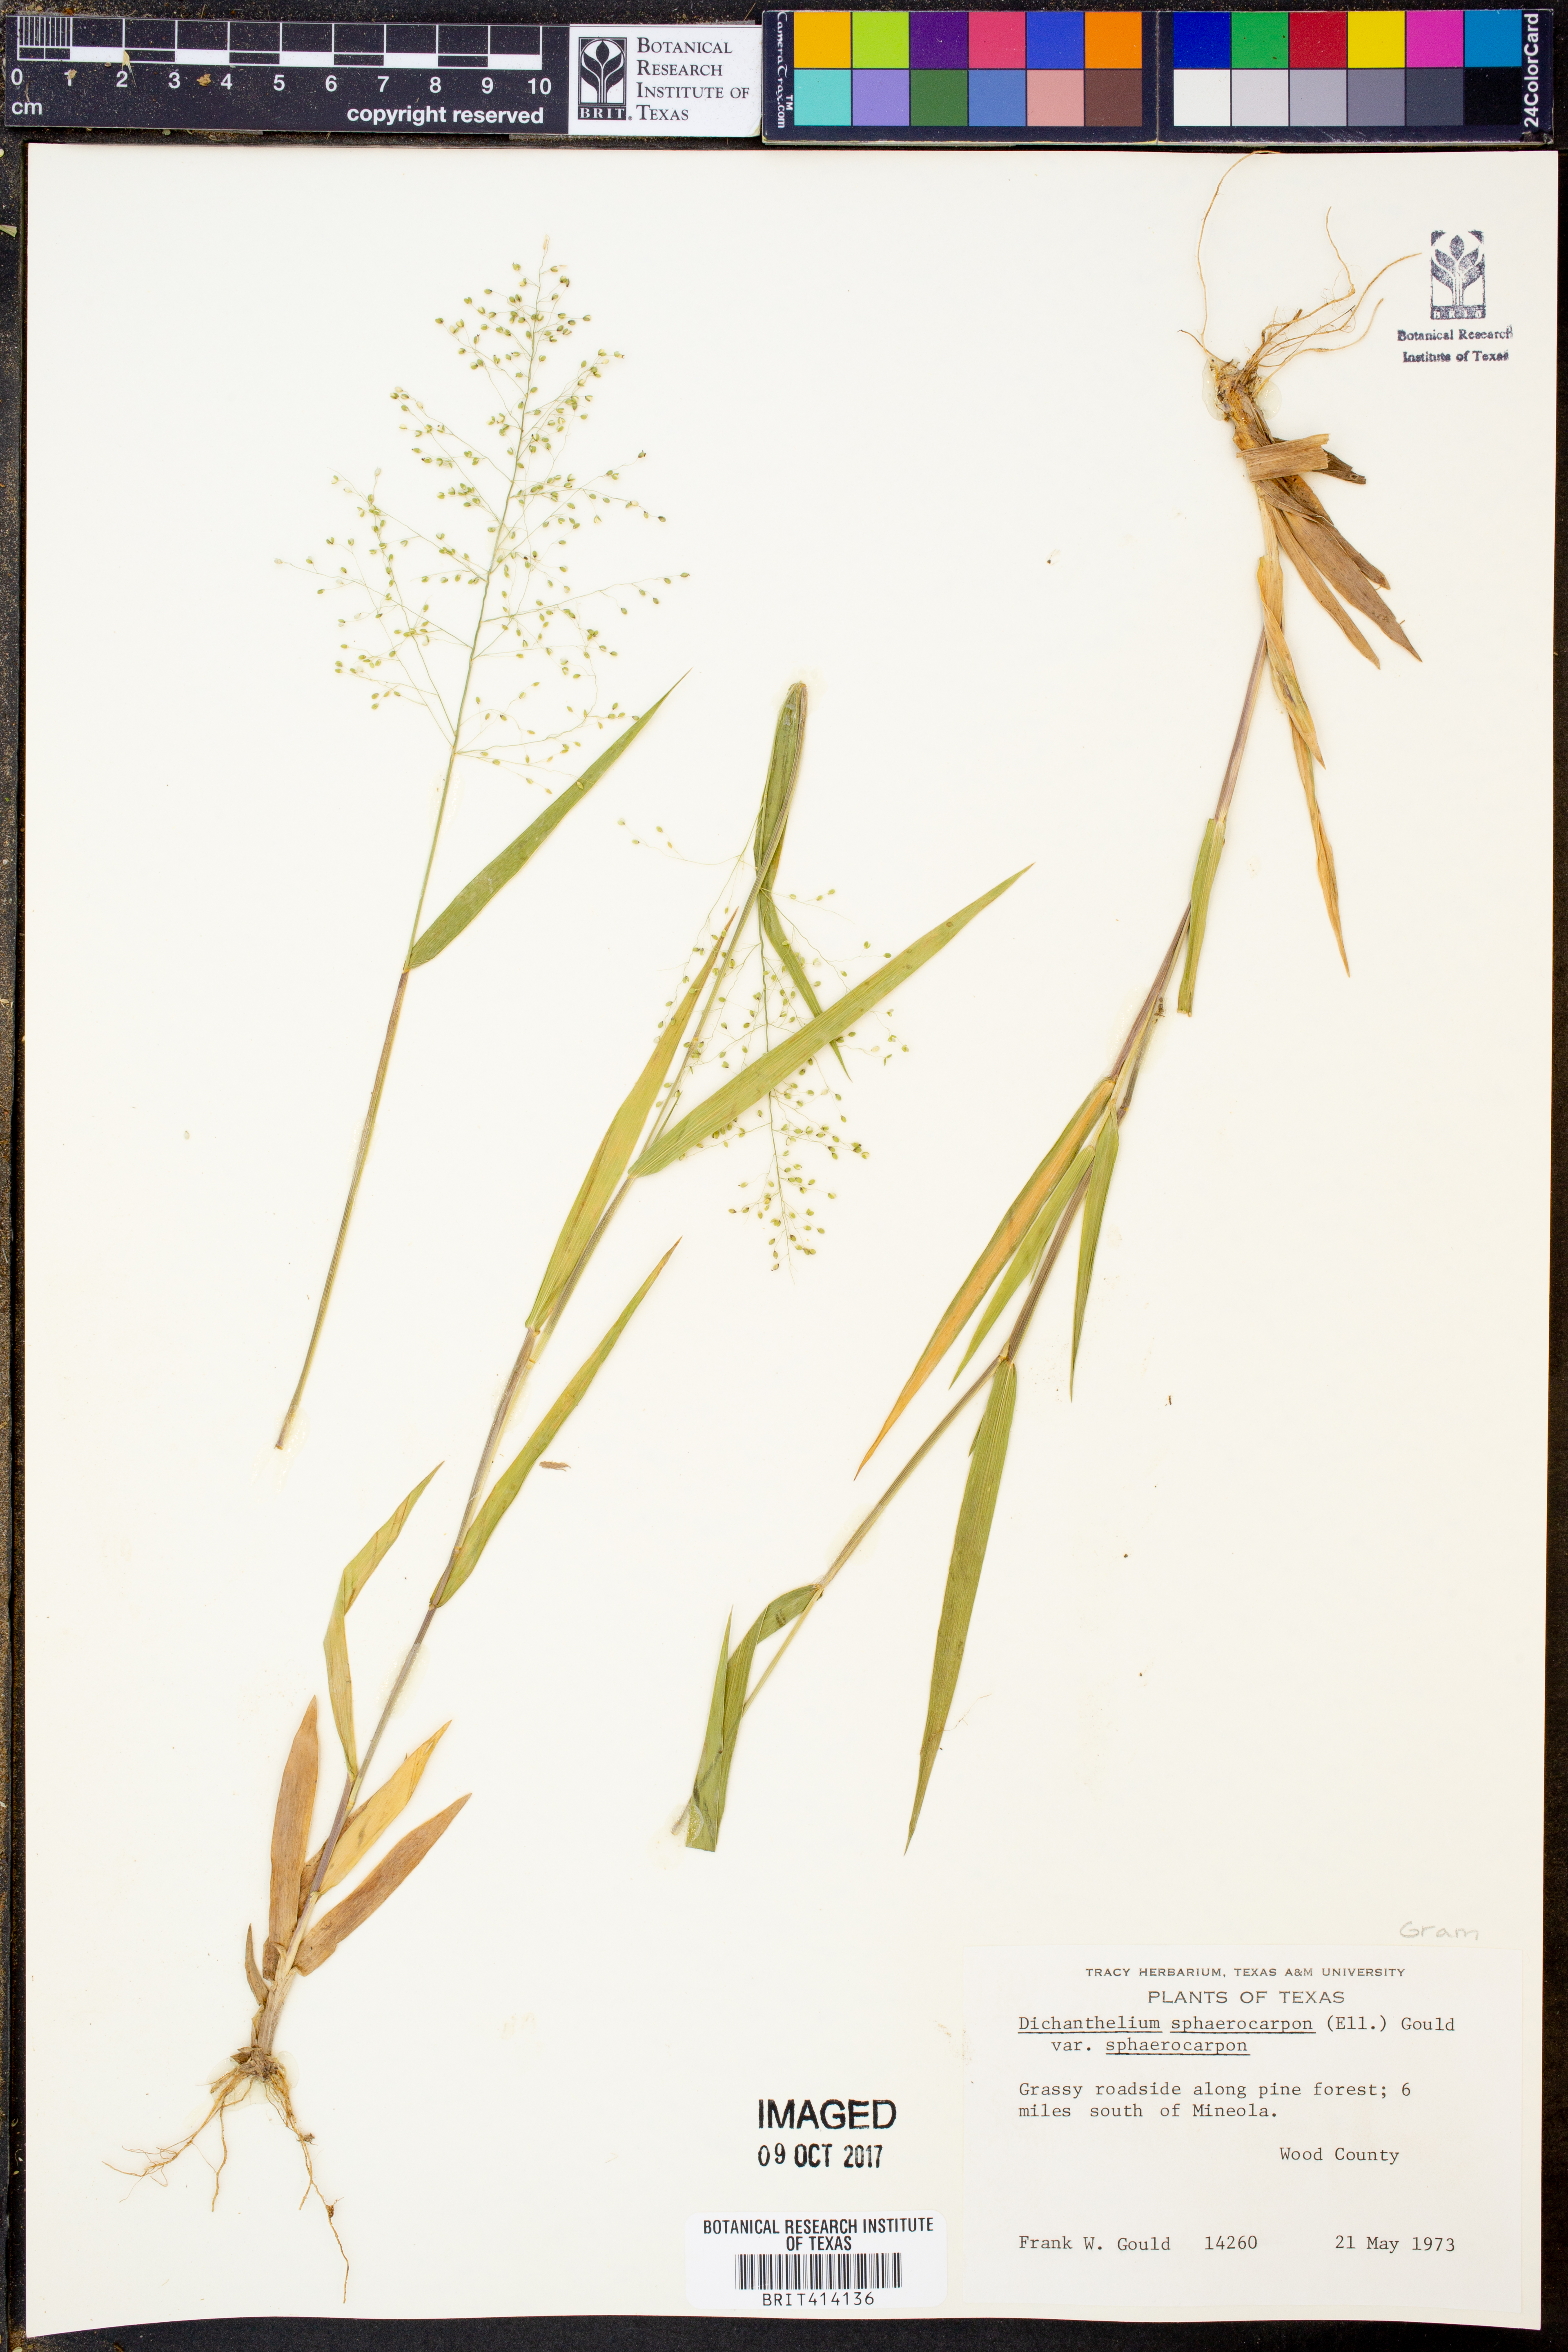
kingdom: Plantae
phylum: Tracheophyta
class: Liliopsida
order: Poales
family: Poaceae
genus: Dichanthelium
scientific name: Dichanthelium sphaerocarpon
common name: Round-fruited panicgrass
